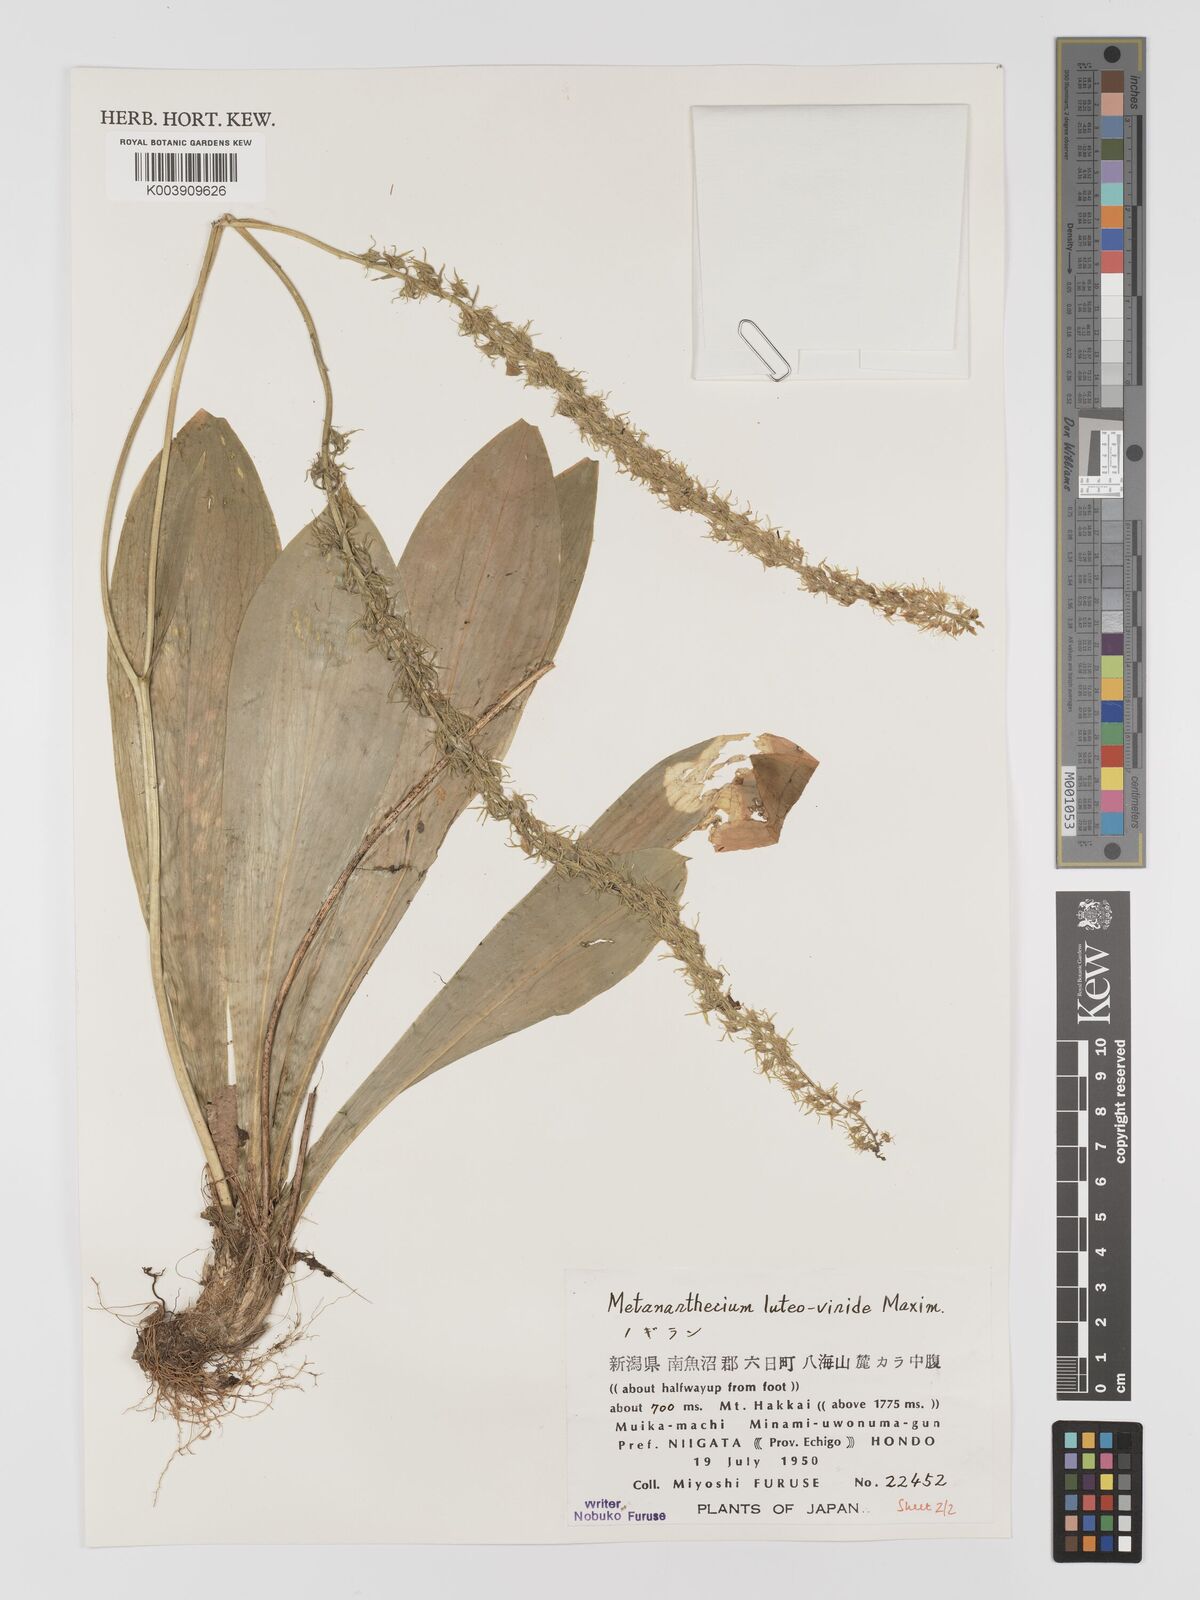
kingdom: Plantae
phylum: Tracheophyta
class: Liliopsida
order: Dioscoreales
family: Nartheciaceae
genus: Metanarthecium
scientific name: Metanarthecium luteoviride
